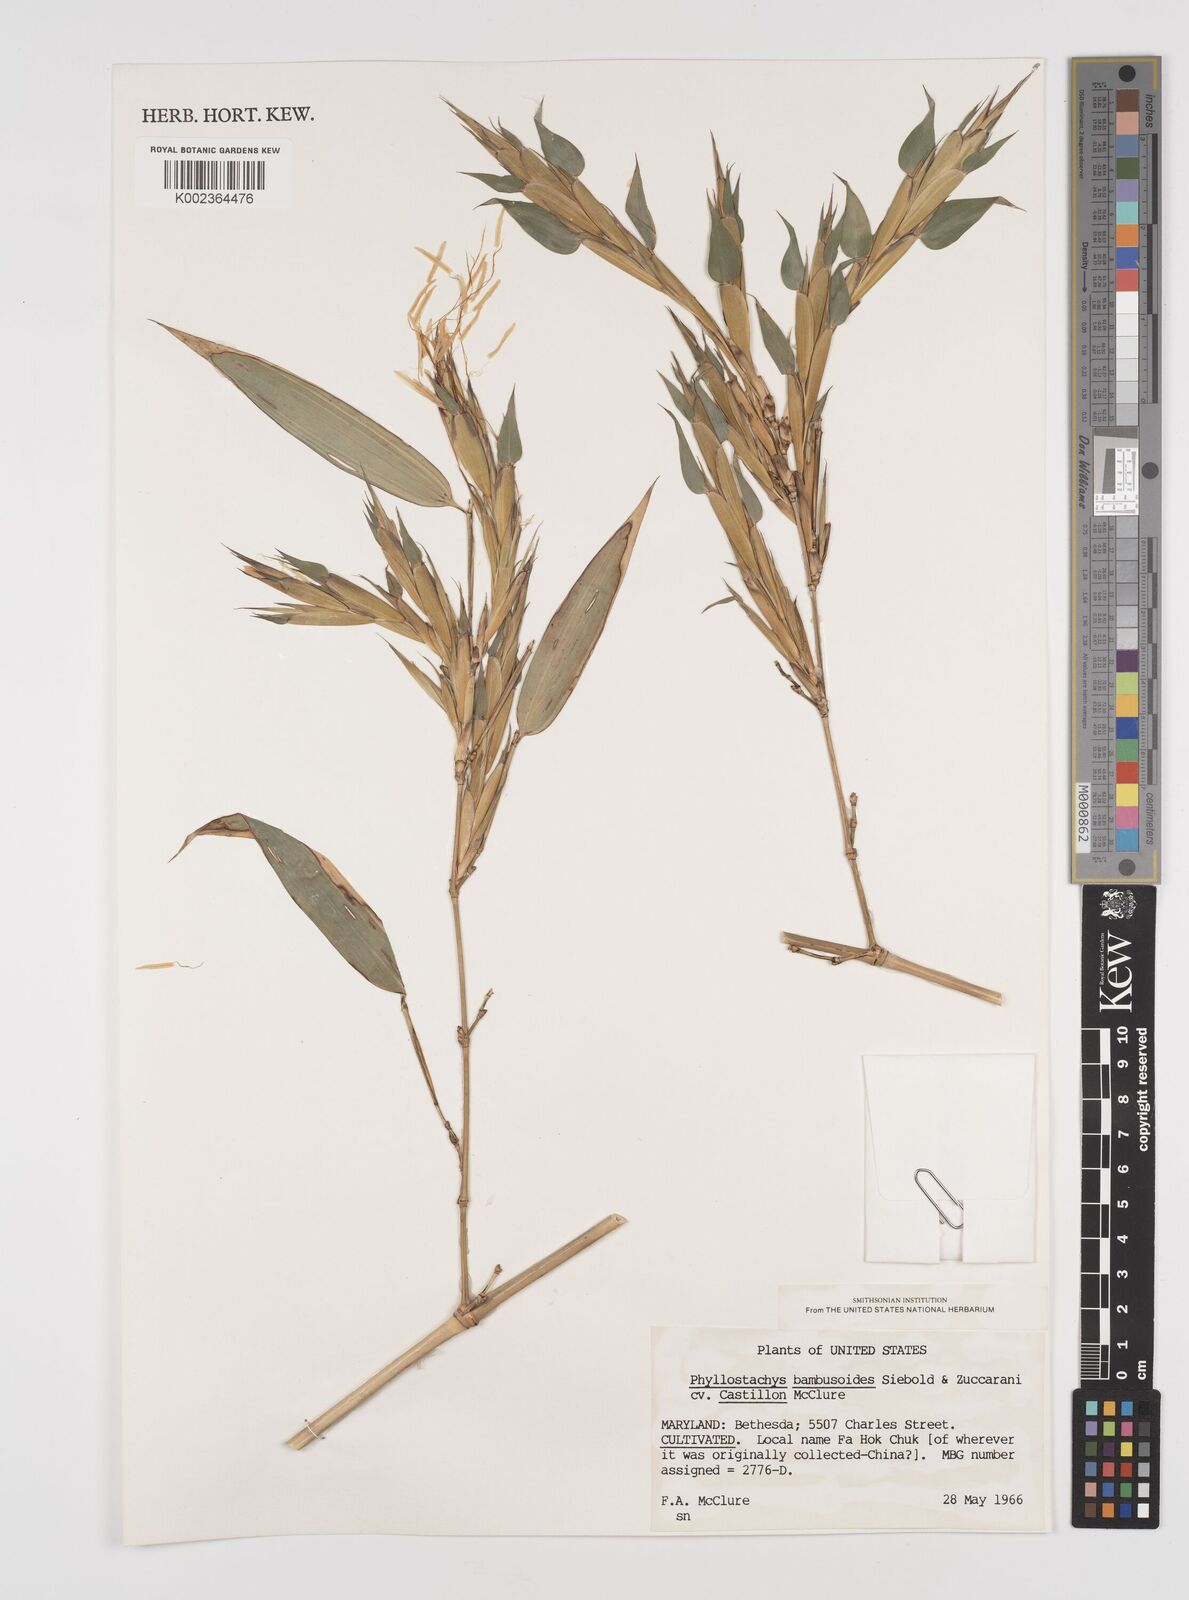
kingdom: Plantae
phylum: Tracheophyta
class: Liliopsida
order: Poales
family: Poaceae
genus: Phyllostachys
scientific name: Phyllostachys
